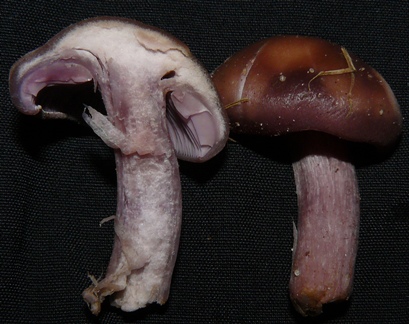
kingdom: Fungi
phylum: Basidiomycota
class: Agaricomycetes
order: Agaricales
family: Tricholomataceae
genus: Lepista
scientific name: Lepista nuda
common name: violet hekseringshat
